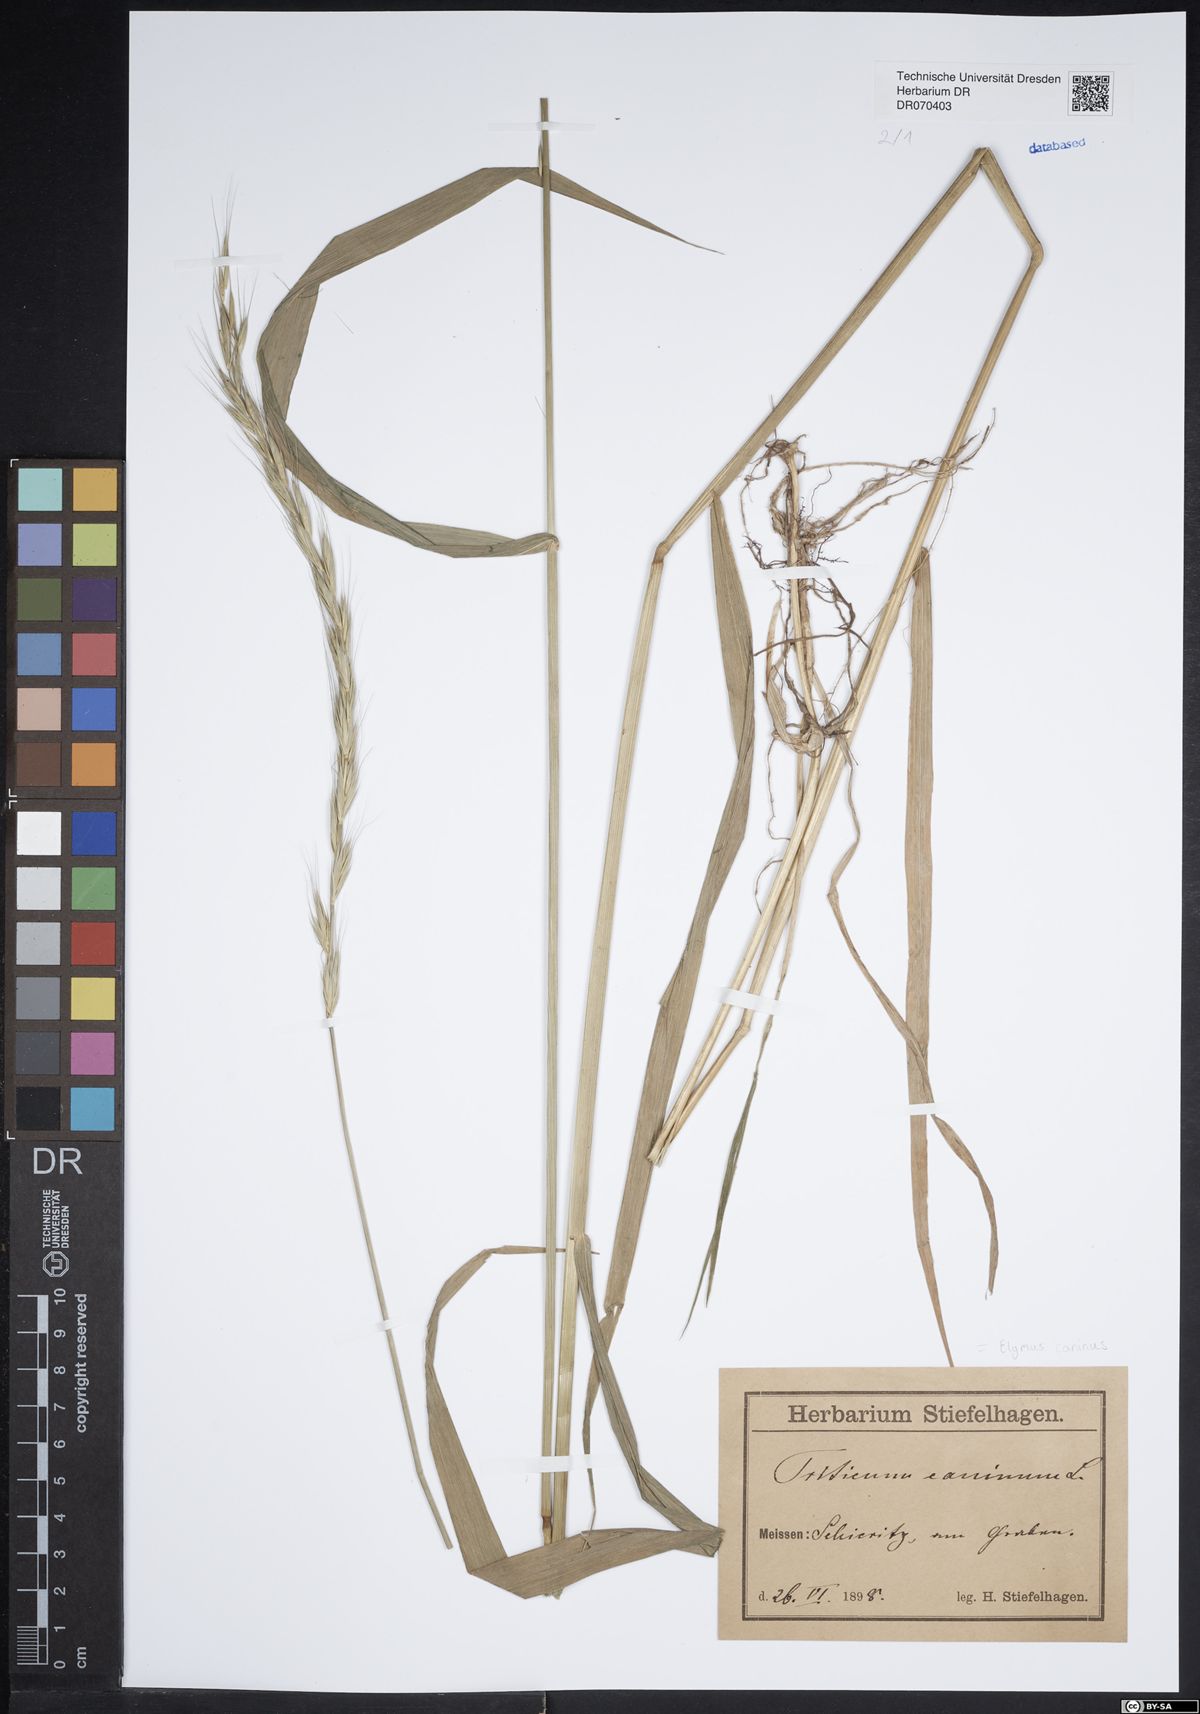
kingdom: Plantae
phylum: Tracheophyta
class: Liliopsida
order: Poales
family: Poaceae
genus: Elymus
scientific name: Elymus caninus
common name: Bearded couch
